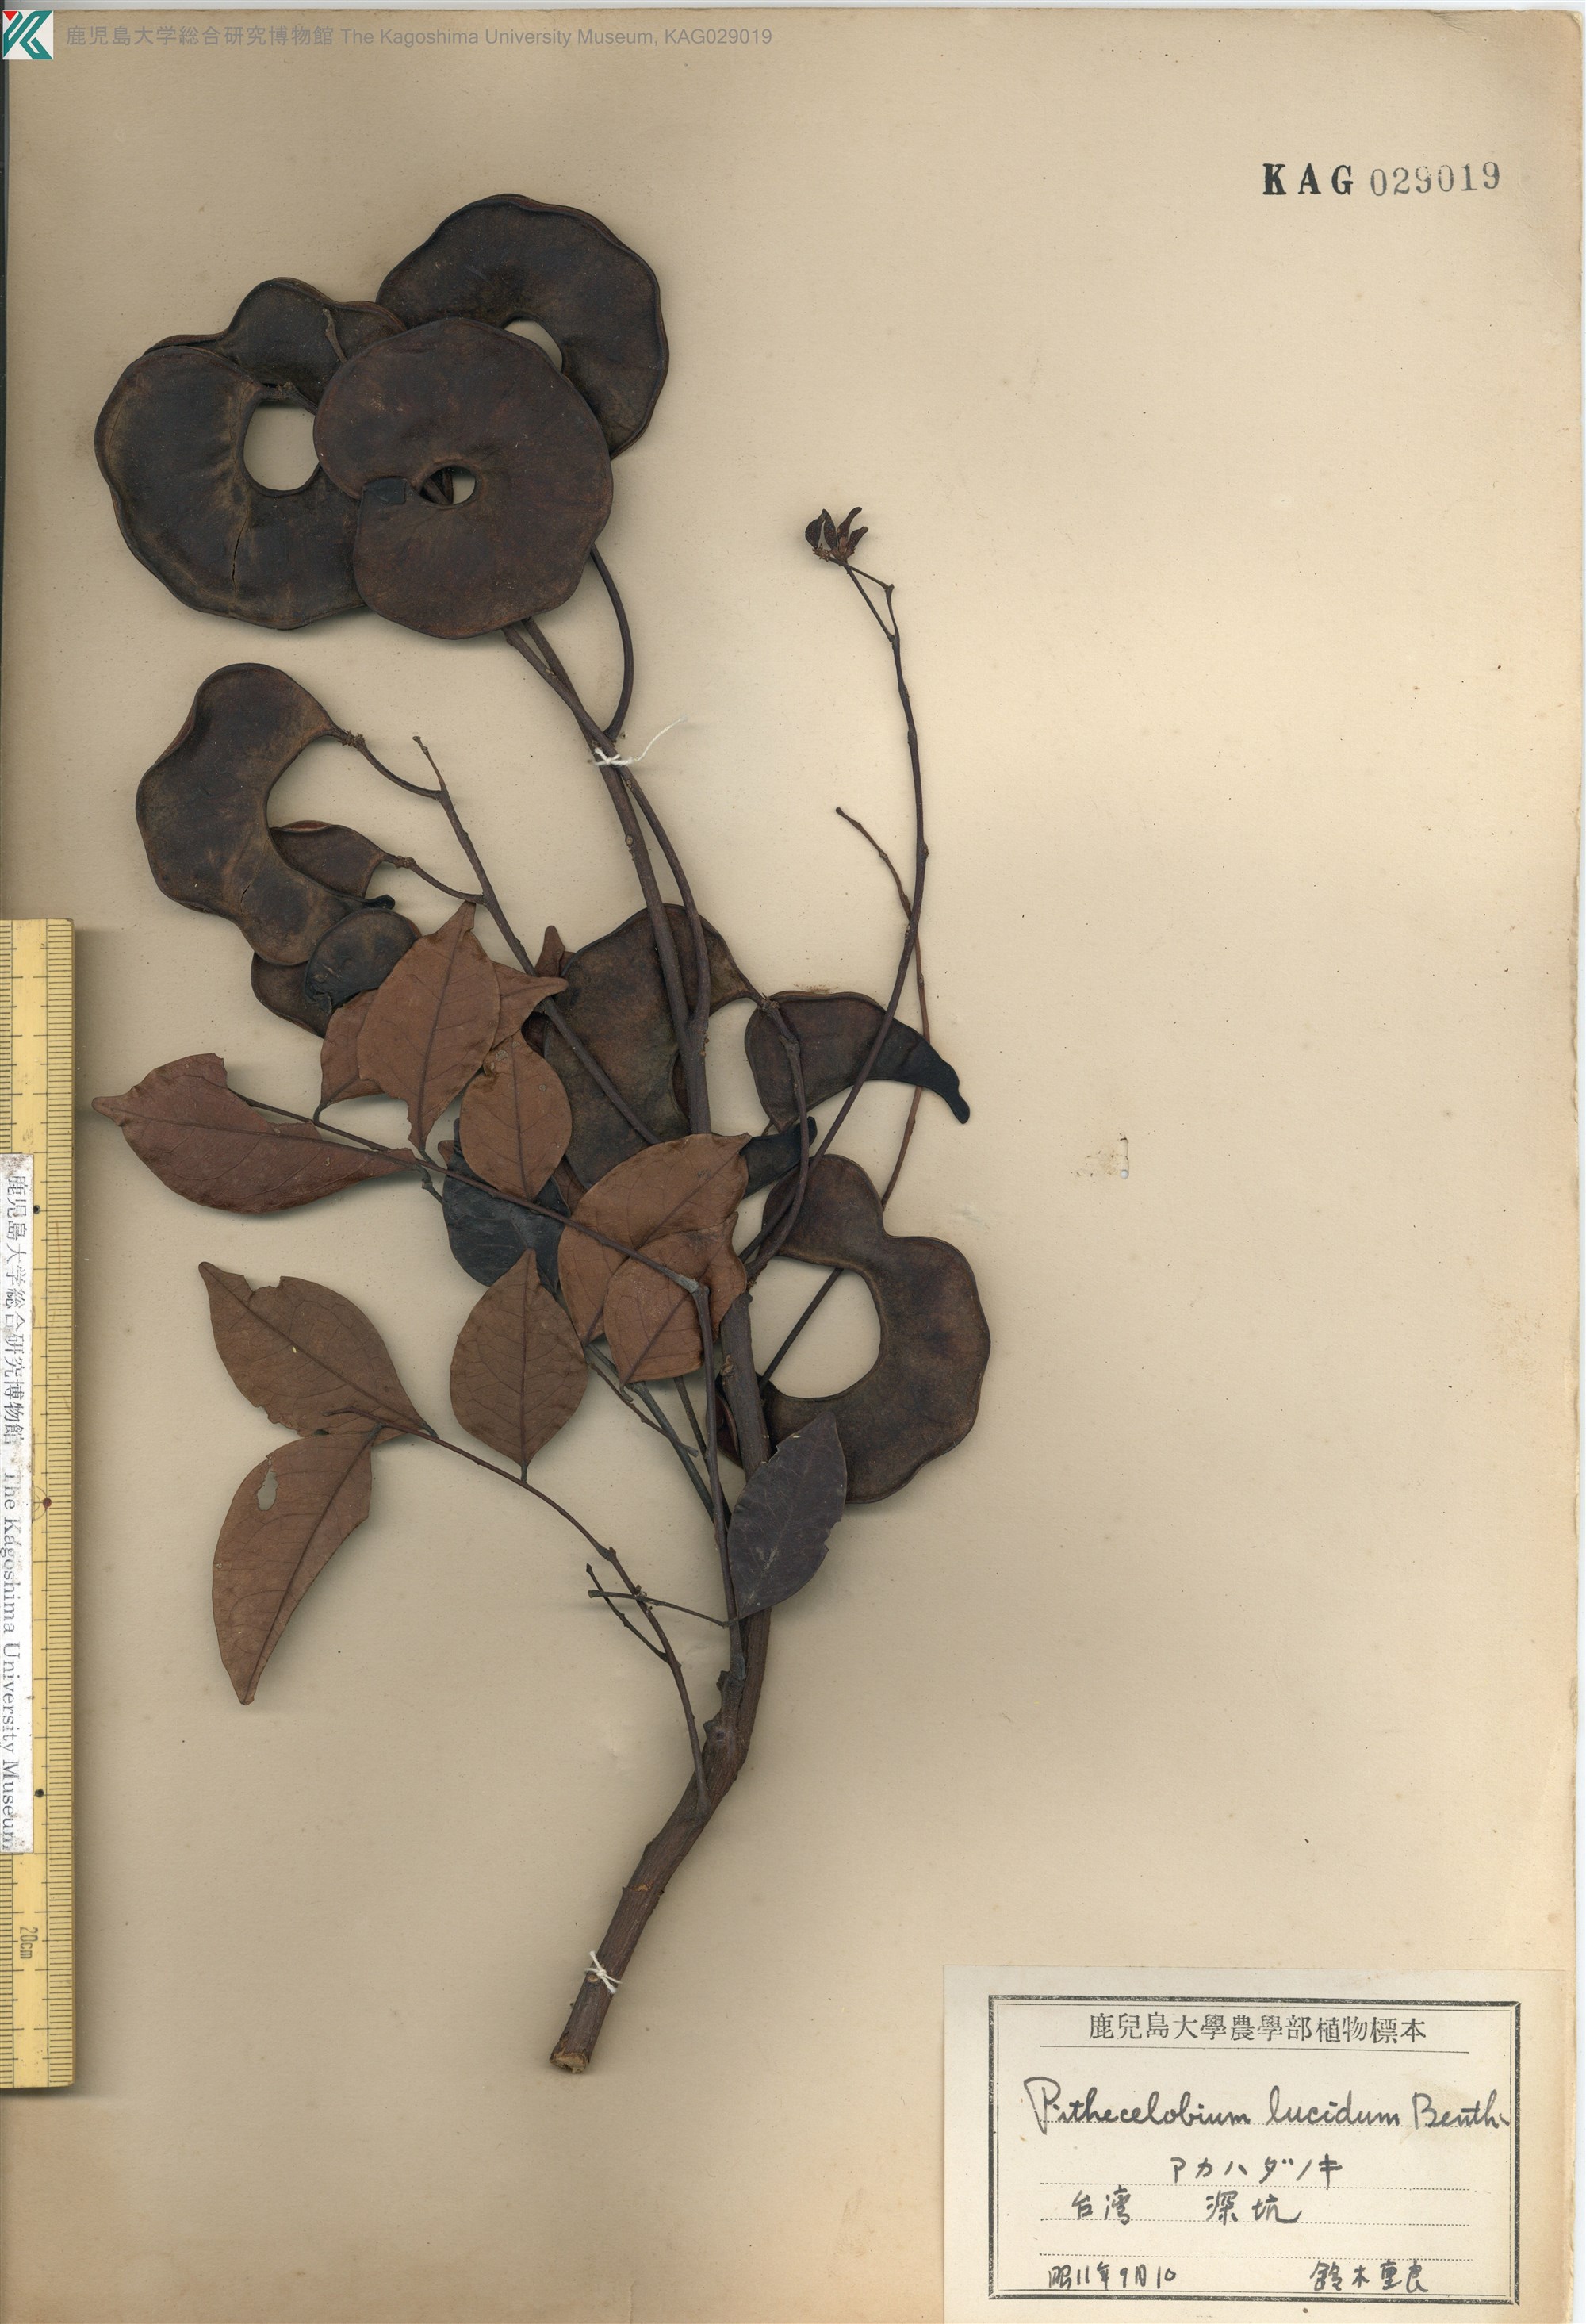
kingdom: Plantae
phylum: Tracheophyta
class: Magnoliopsida
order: Fabales
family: Fabaceae
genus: Archidendron
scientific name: Archidendron lucidum
